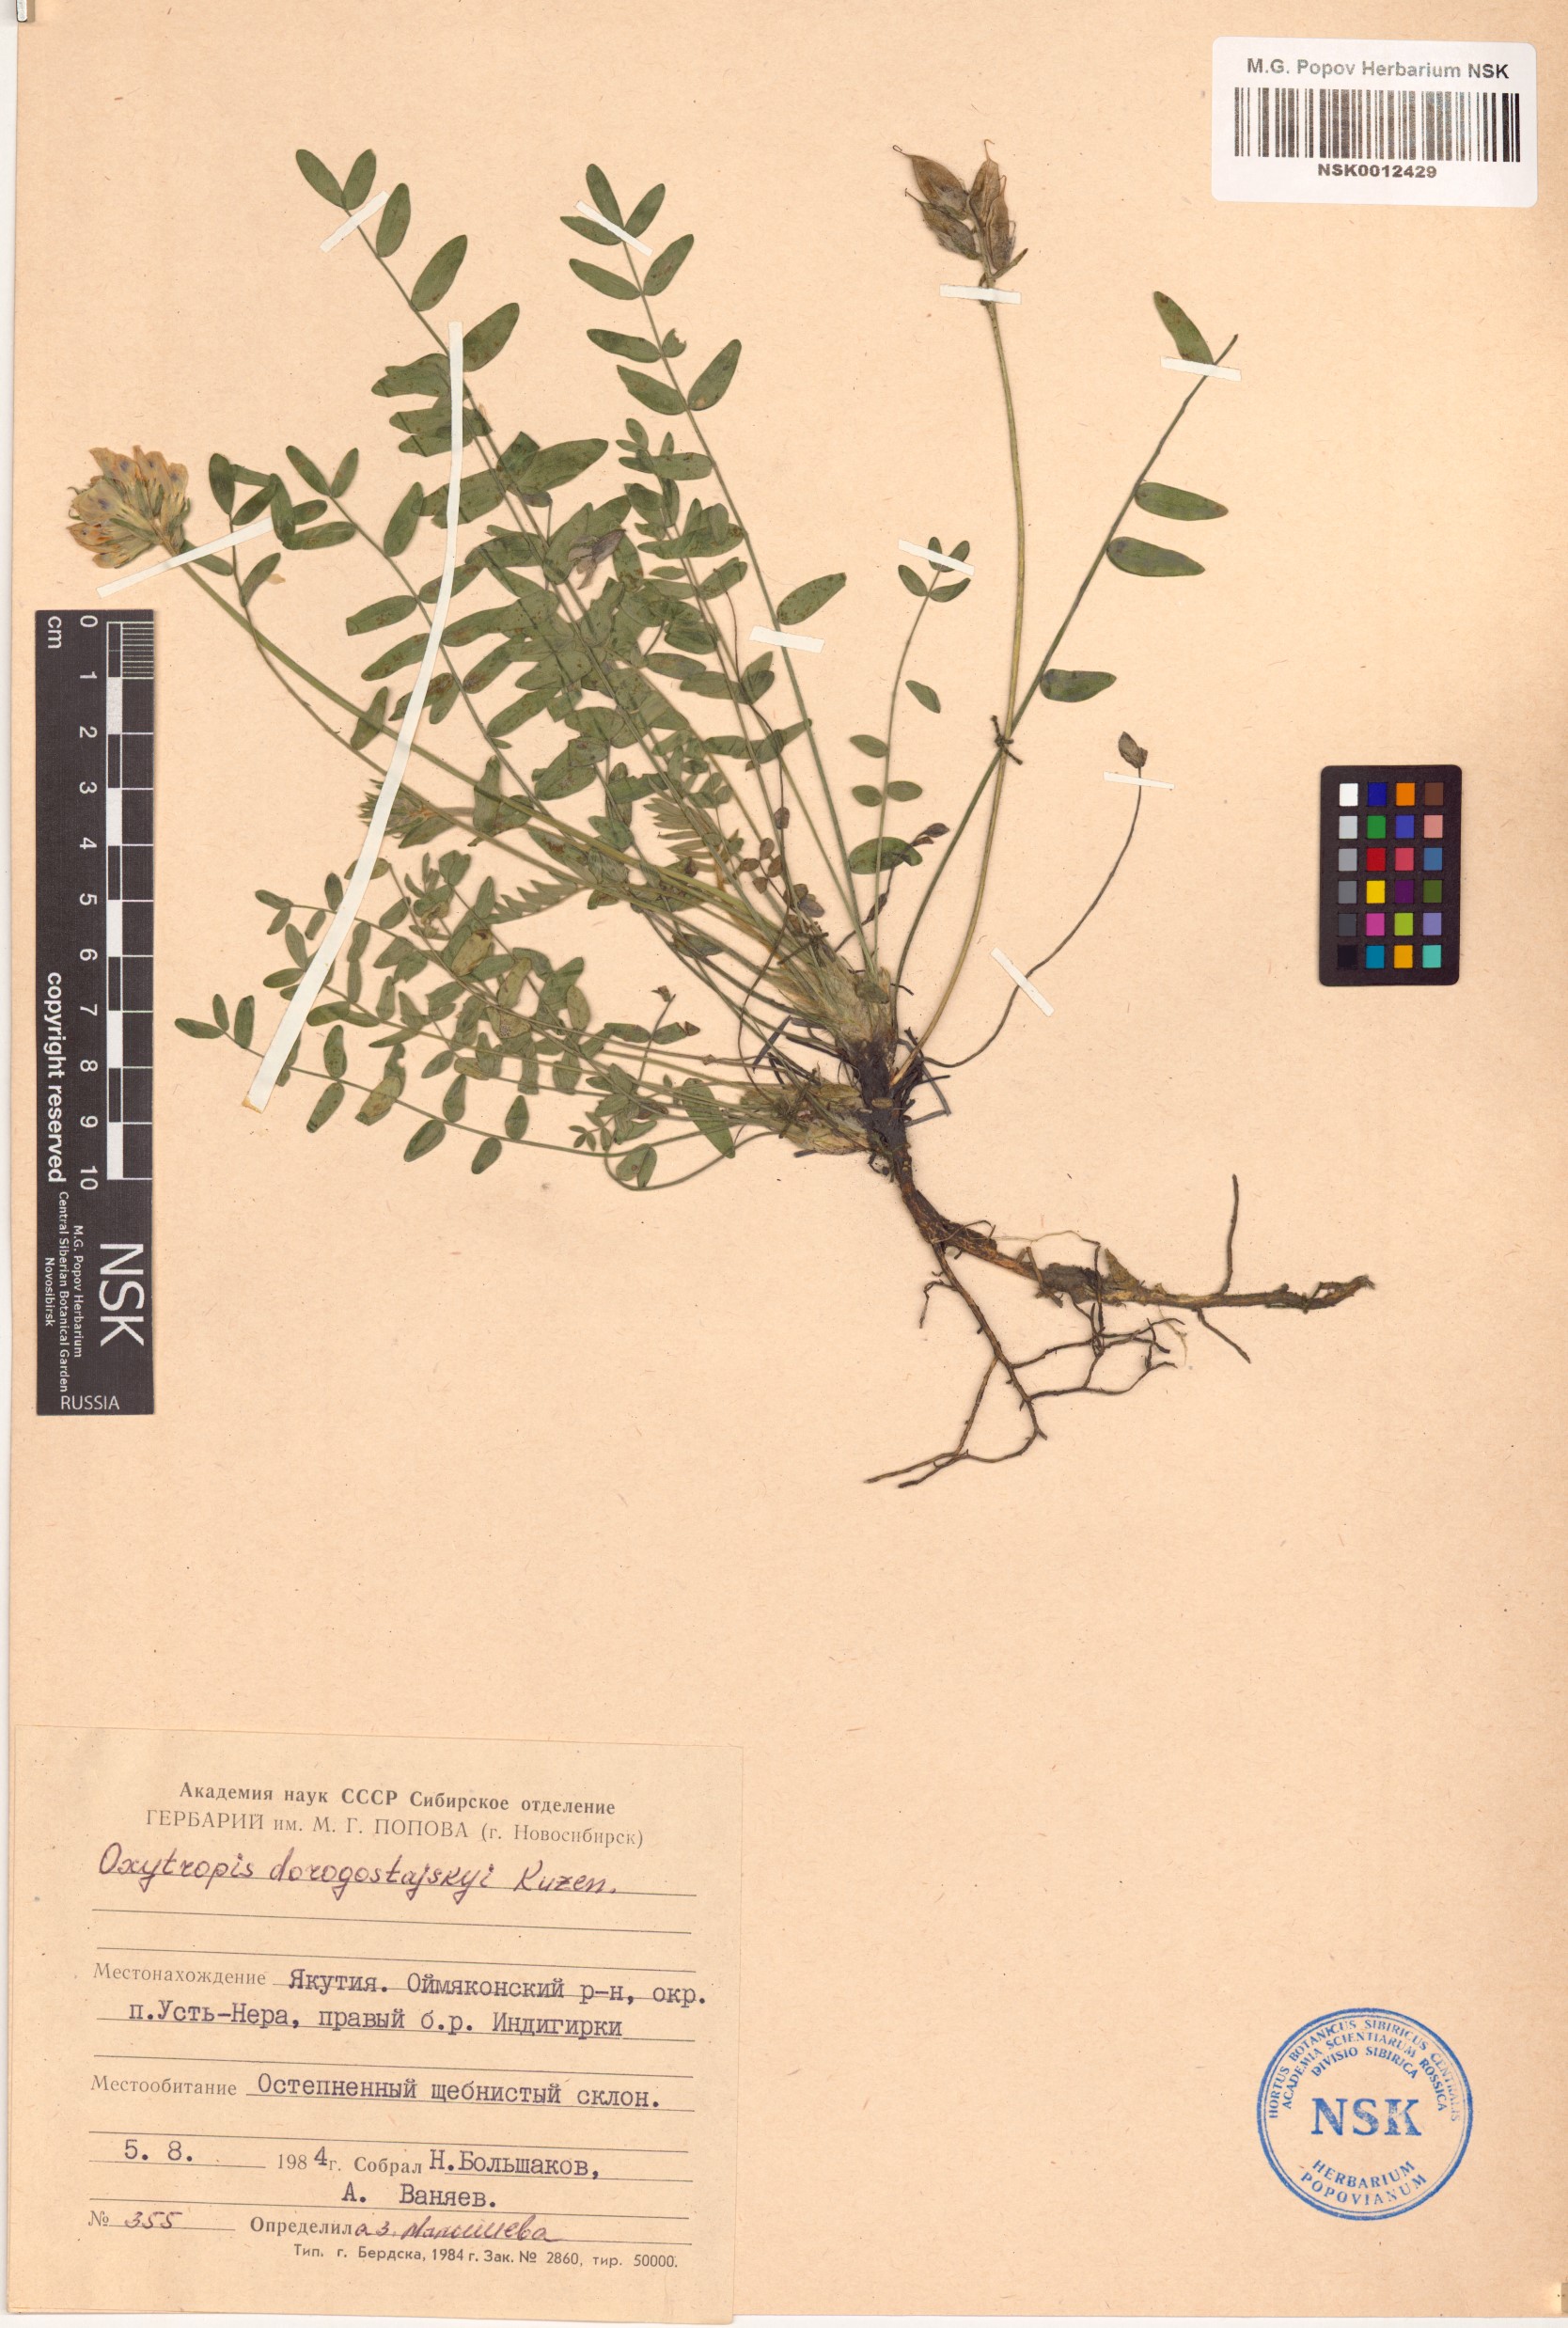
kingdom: Plantae
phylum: Tracheophyta
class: Magnoliopsida
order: Fabales
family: Fabaceae
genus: Oxytropis
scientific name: Oxytropis dorogostajskyi
